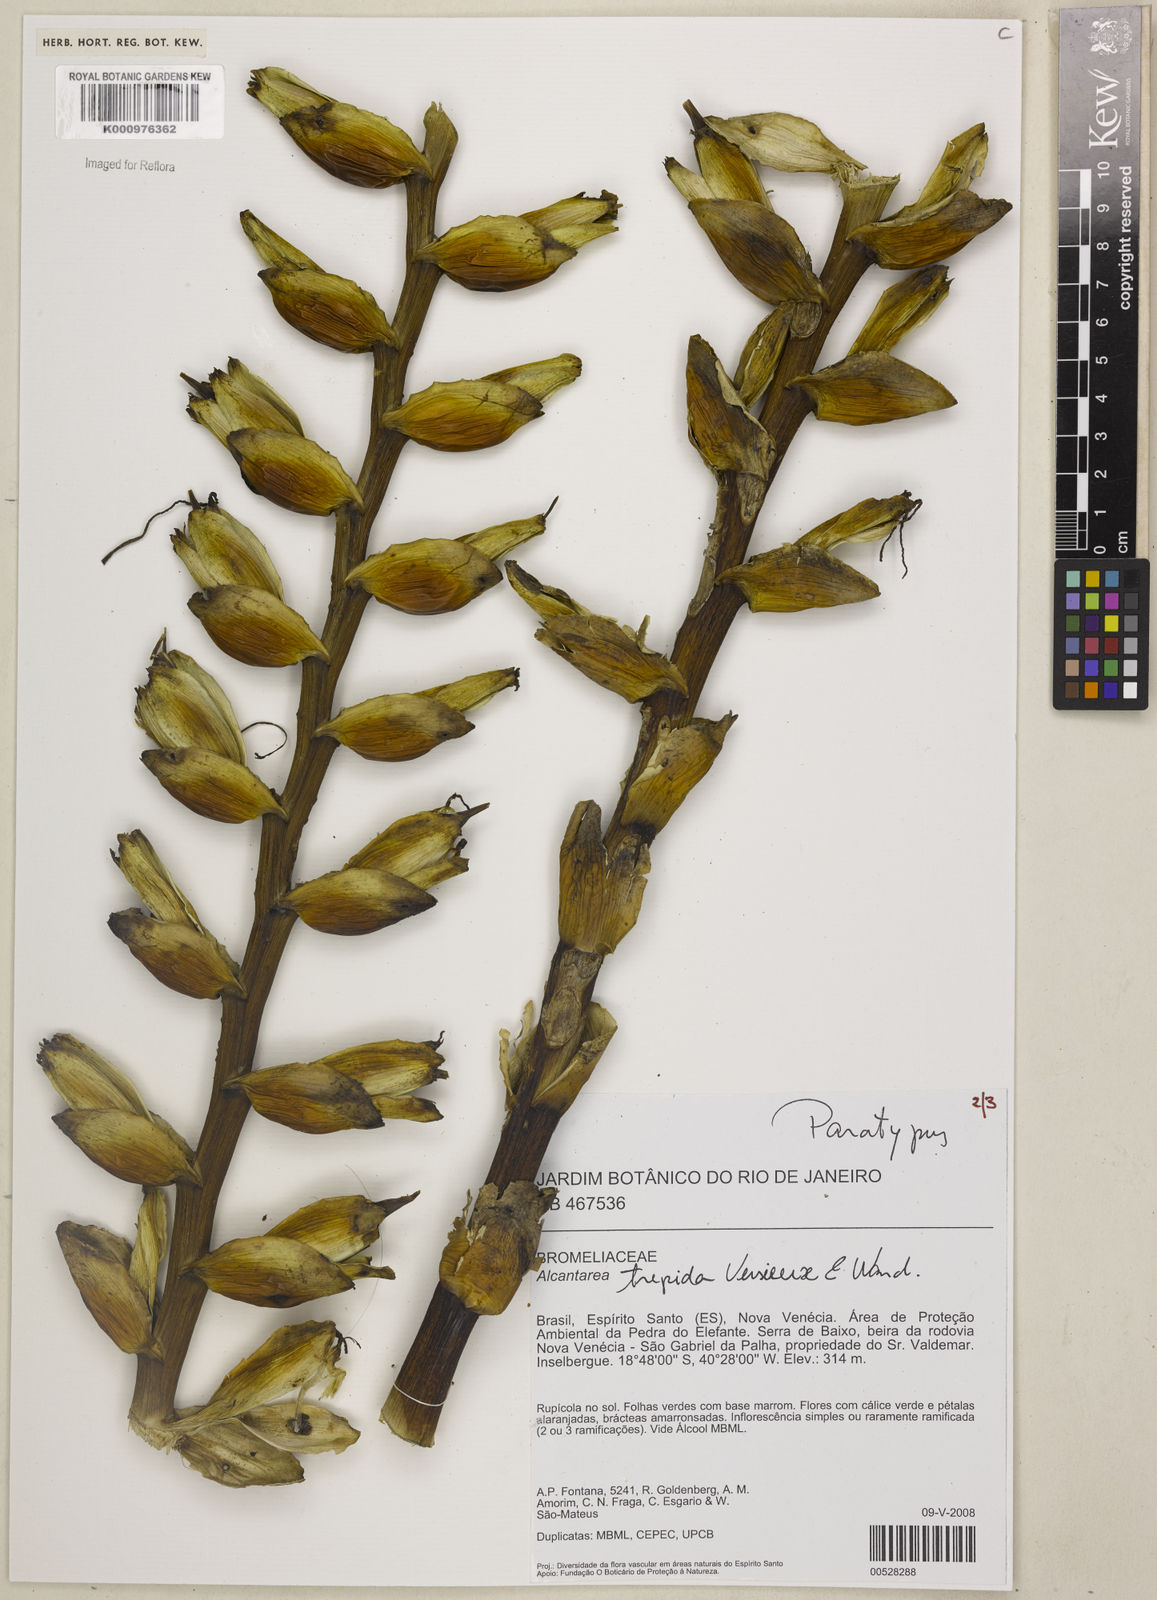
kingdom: Plantae
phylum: Tracheophyta
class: Liliopsida
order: Poales
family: Bromeliaceae
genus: Vriesea
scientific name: Vriesea
